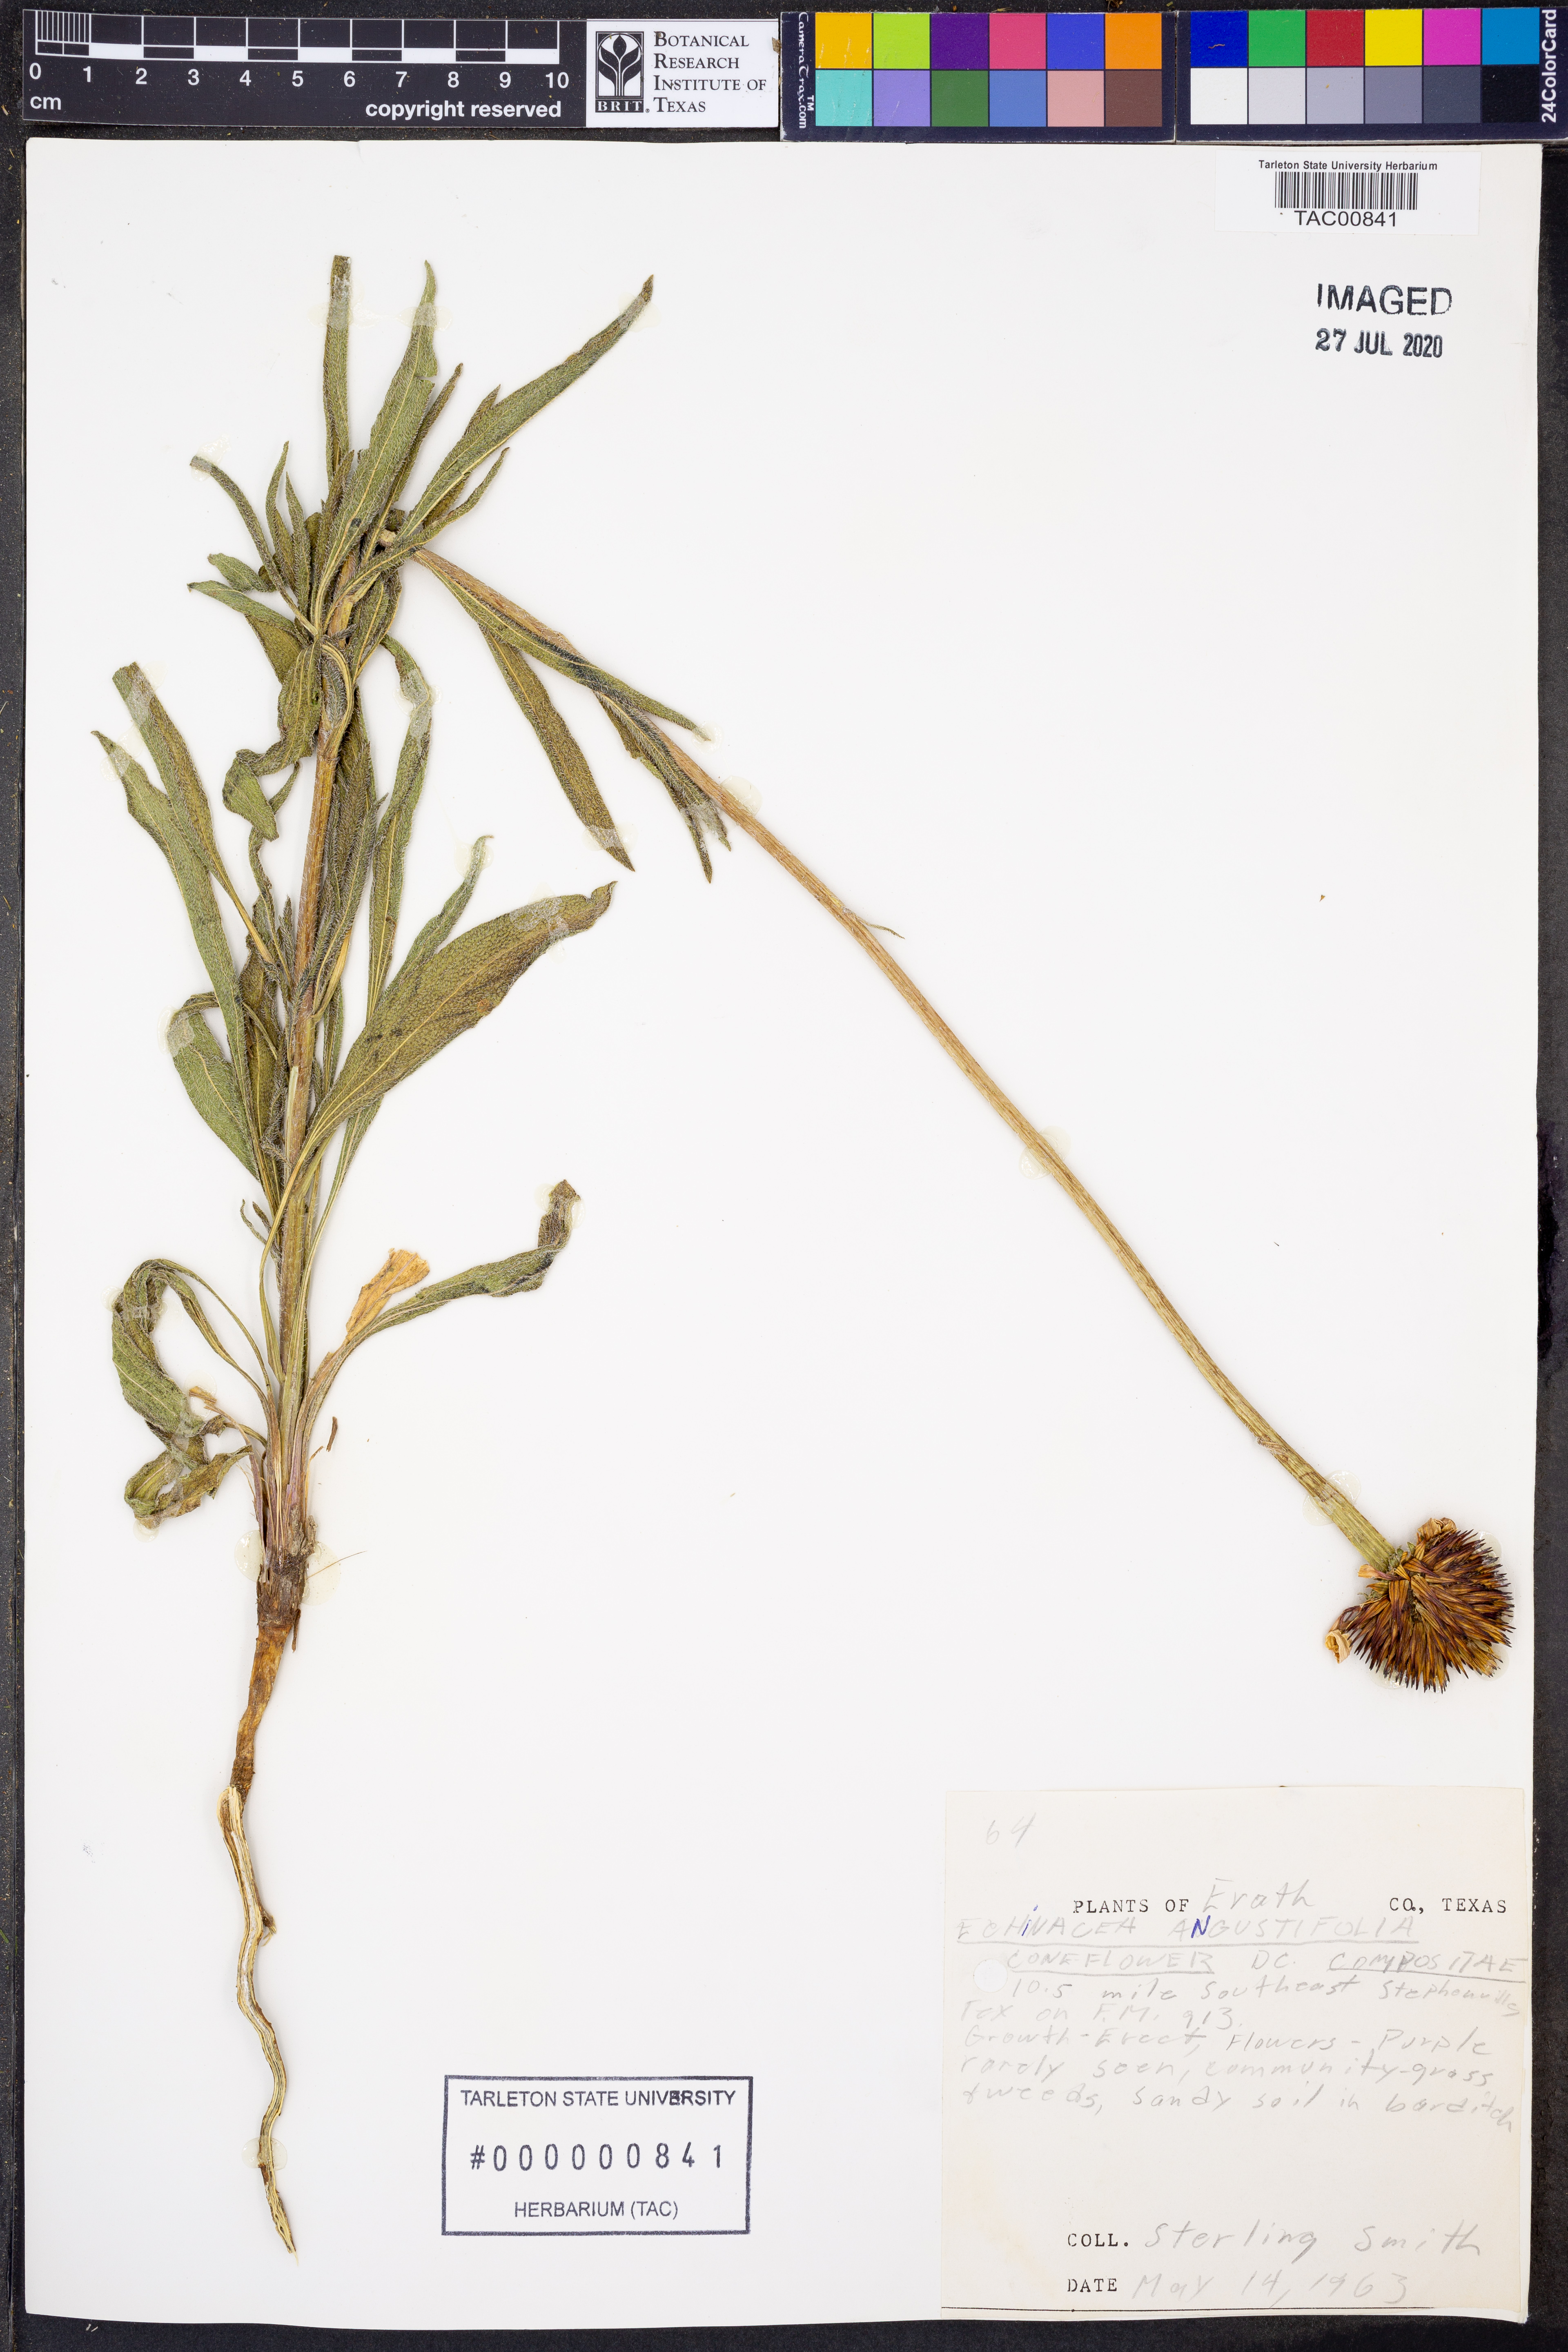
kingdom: Plantae
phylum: Tracheophyta
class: Magnoliopsida
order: Asterales
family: Asteraceae
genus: Echinacea
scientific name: Echinacea angustifolia
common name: Black-sampson echinacea
